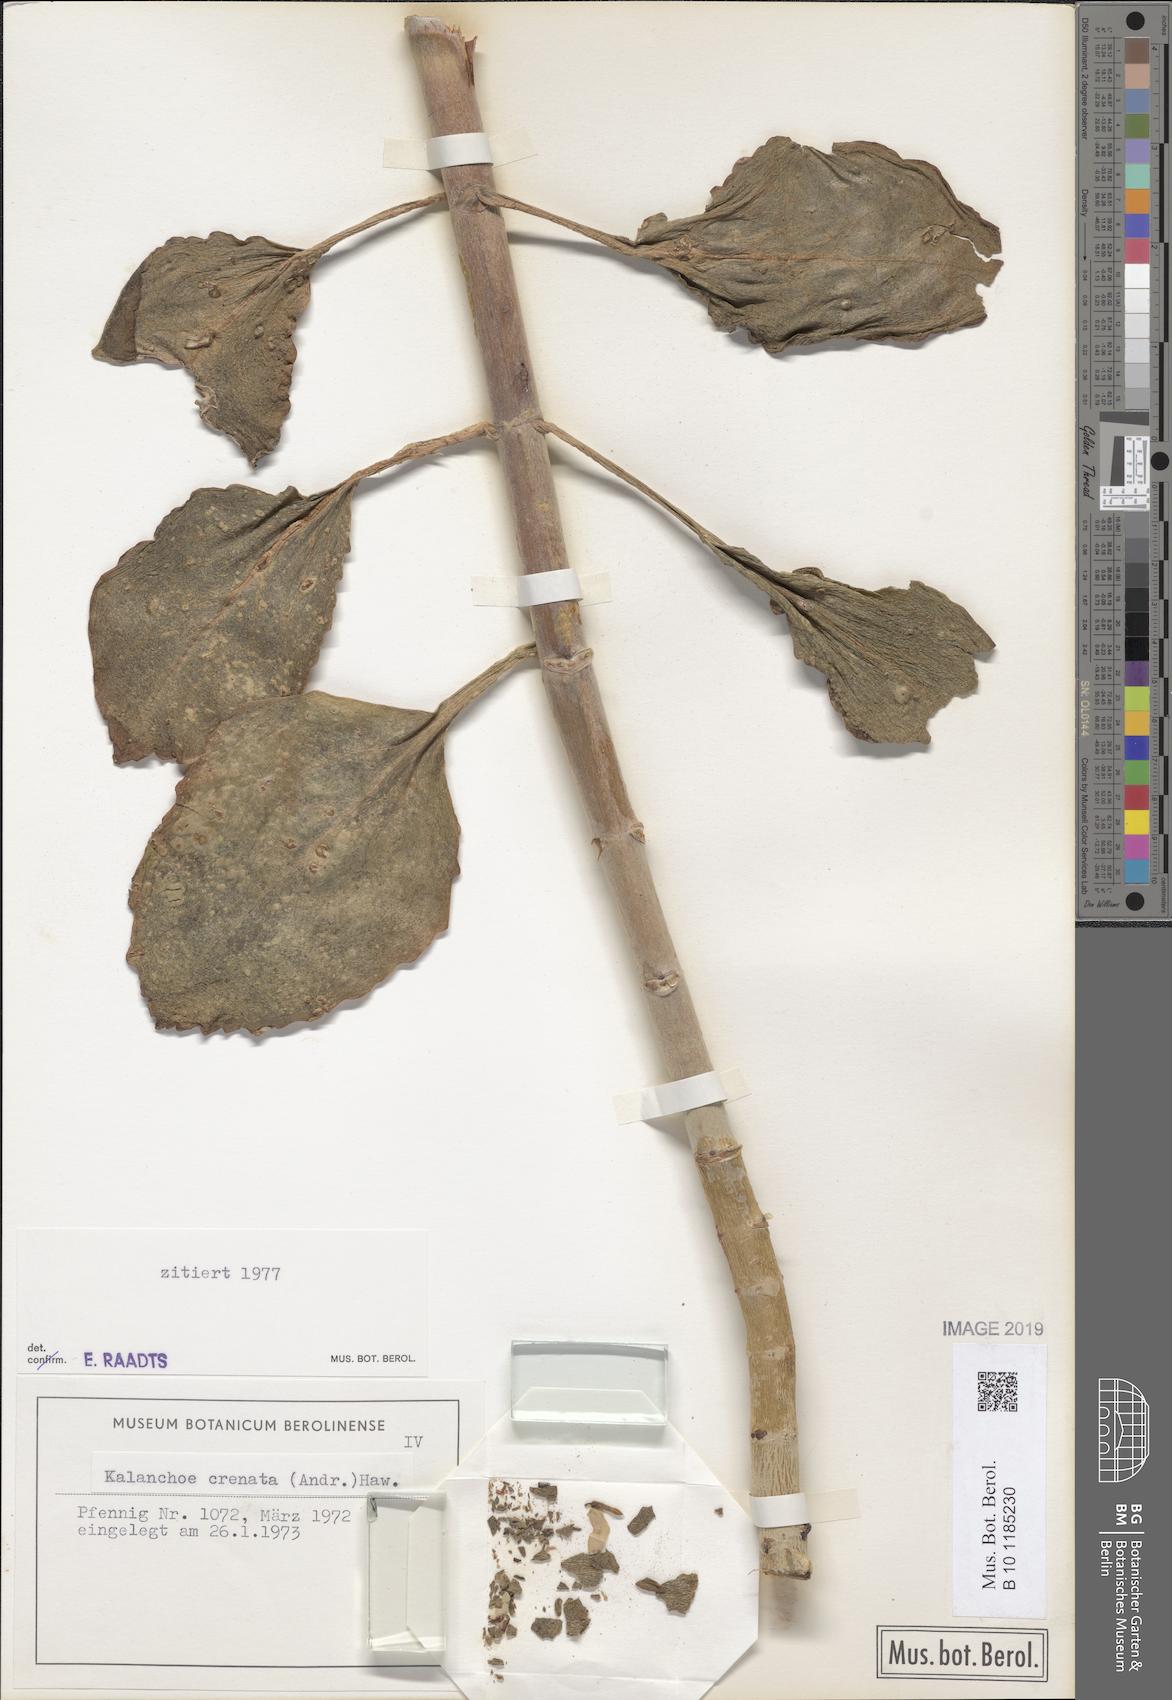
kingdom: Plantae
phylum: Tracheophyta
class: Magnoliopsida
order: Saxifragales
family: Crassulaceae
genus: Kalanchoe
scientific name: Kalanchoe crenata
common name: Neverdie
